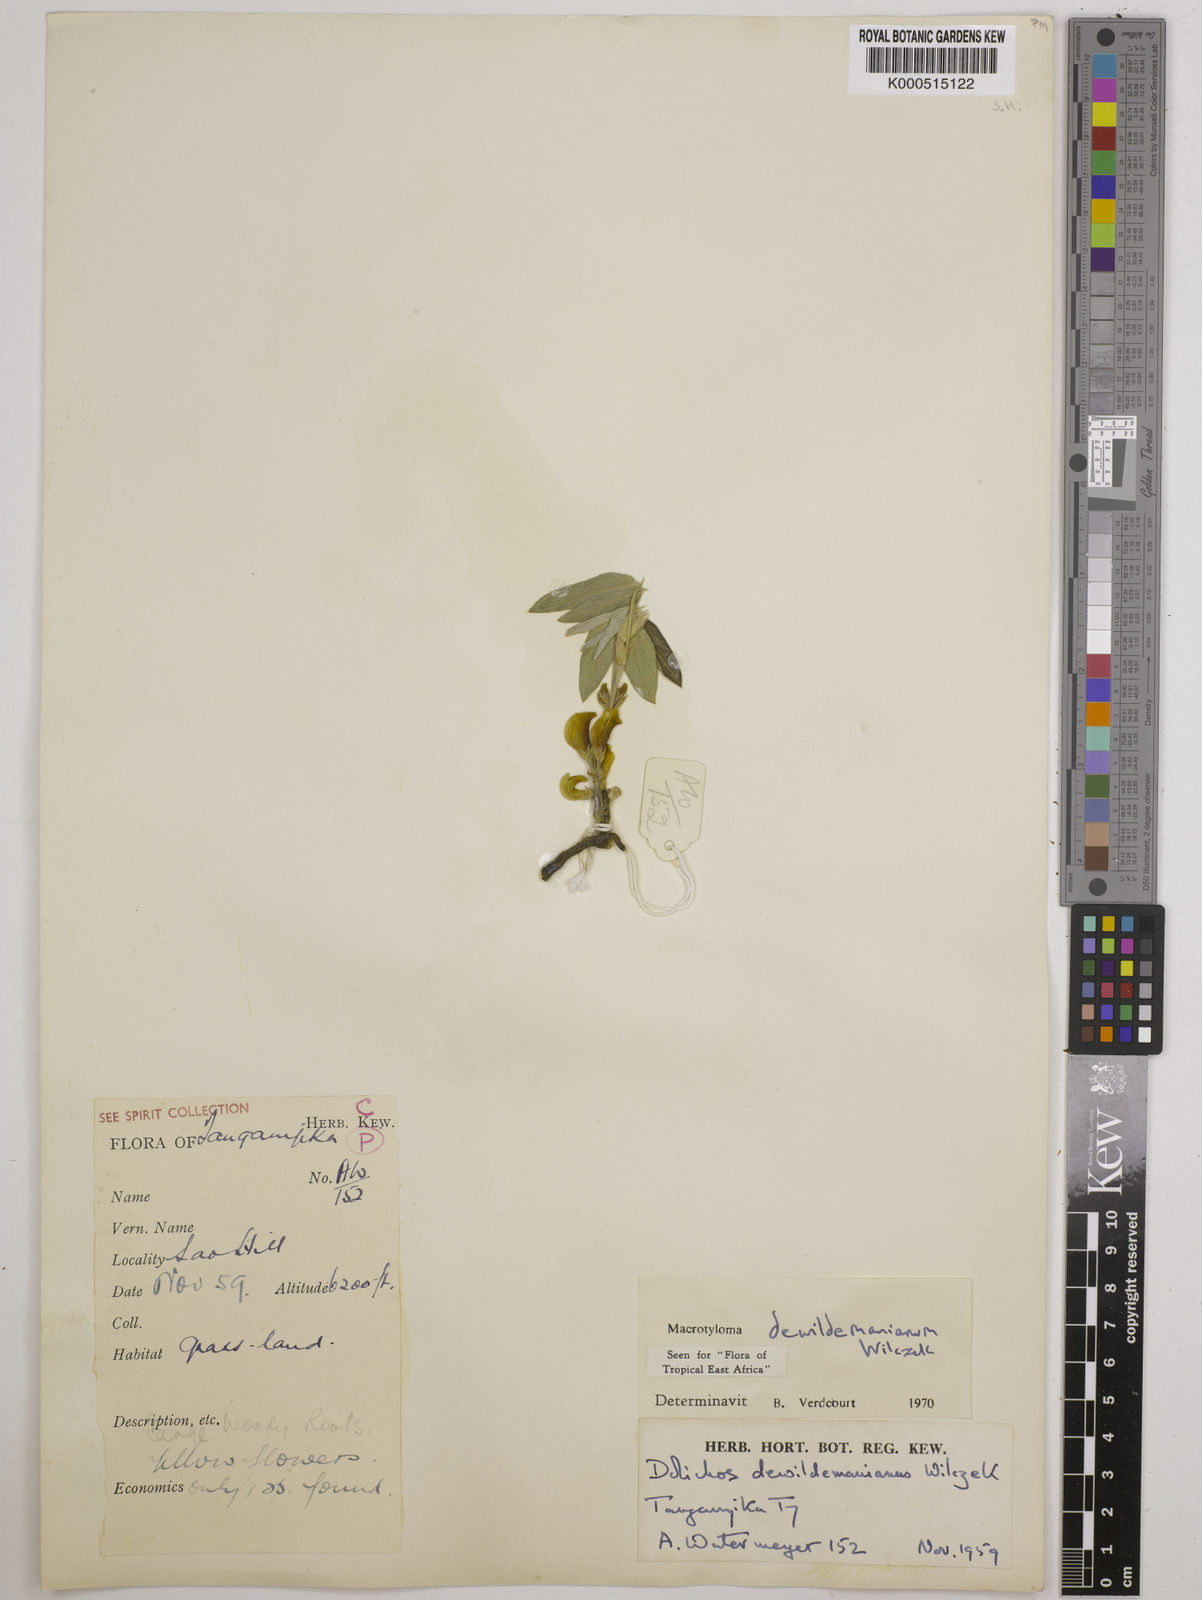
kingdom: Plantae
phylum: Tracheophyta
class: Magnoliopsida
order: Fabales
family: Fabaceae
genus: Macrotyloma
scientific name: Macrotyloma dewildemanianum
